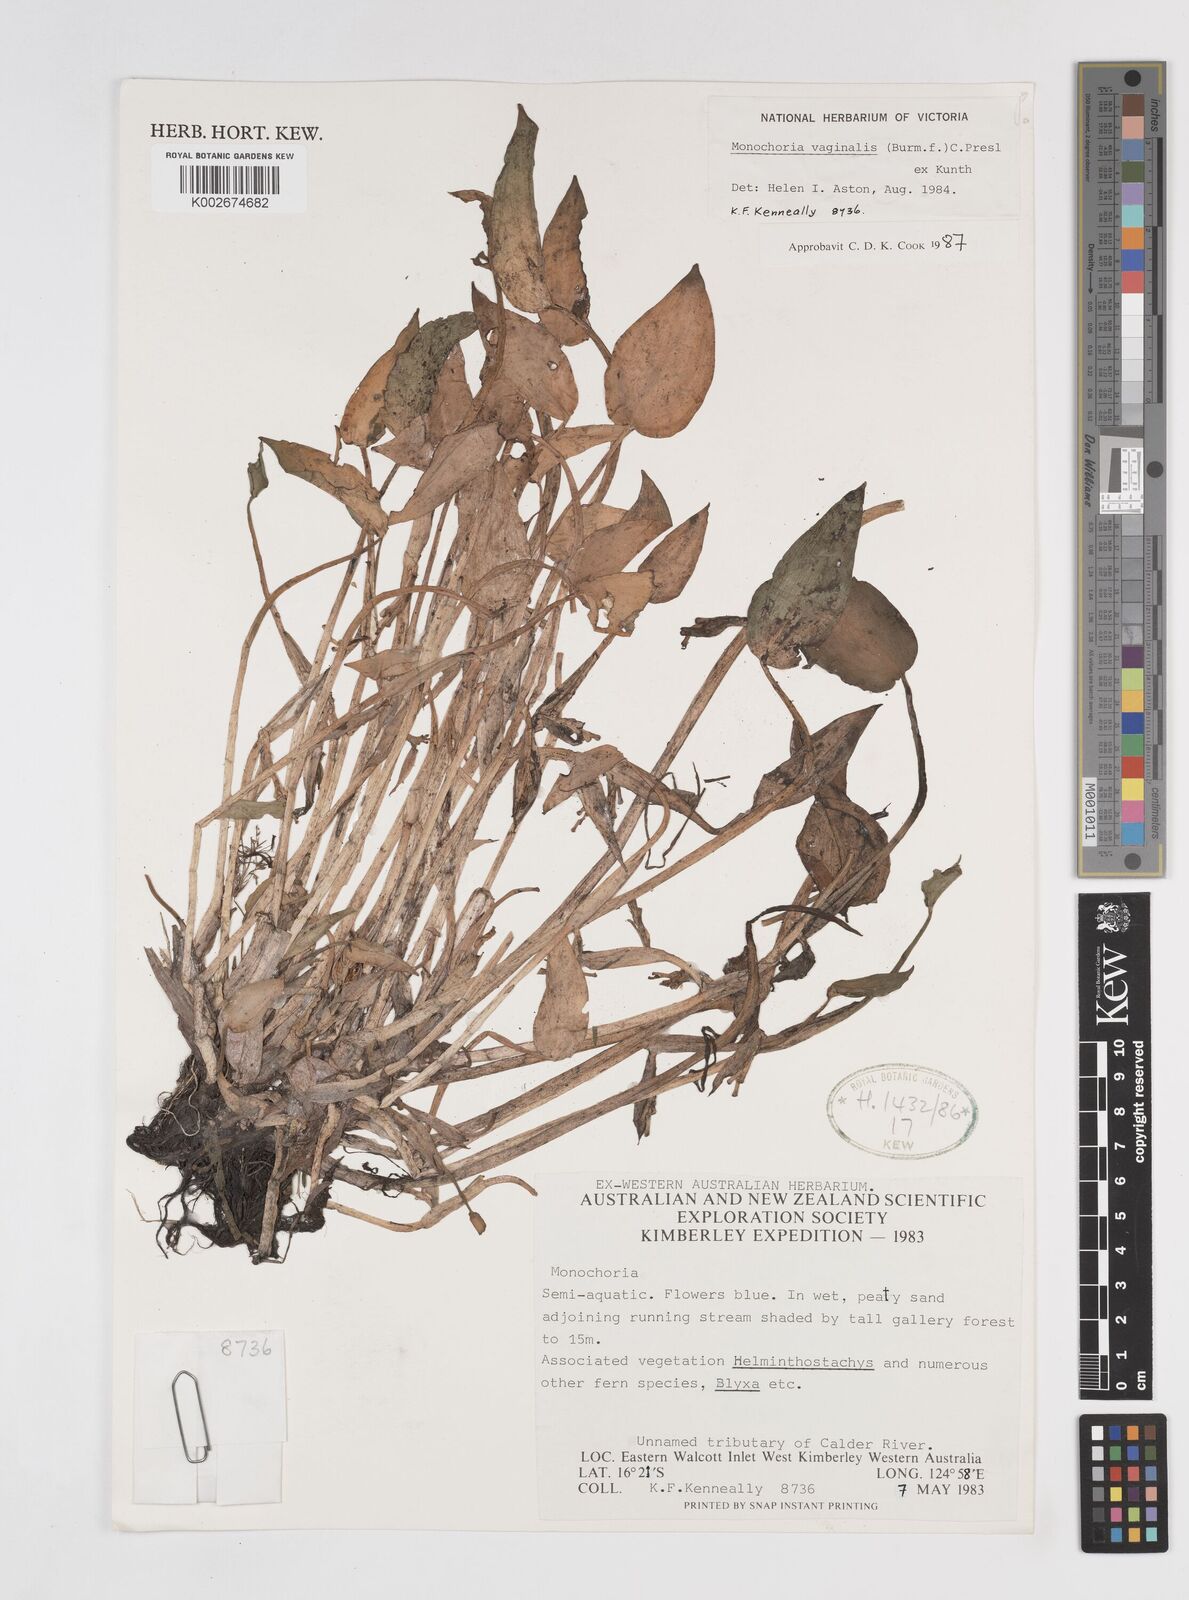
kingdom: Plantae
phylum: Tracheophyta
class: Liliopsida
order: Commelinales
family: Pontederiaceae
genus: Pontederia
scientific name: Pontederia vaginalis
